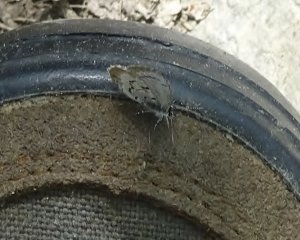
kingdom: Animalia
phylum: Arthropoda
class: Insecta
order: Lepidoptera
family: Lycaenidae
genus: Celastrina
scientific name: Celastrina lucia
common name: Northern Spring Azure
